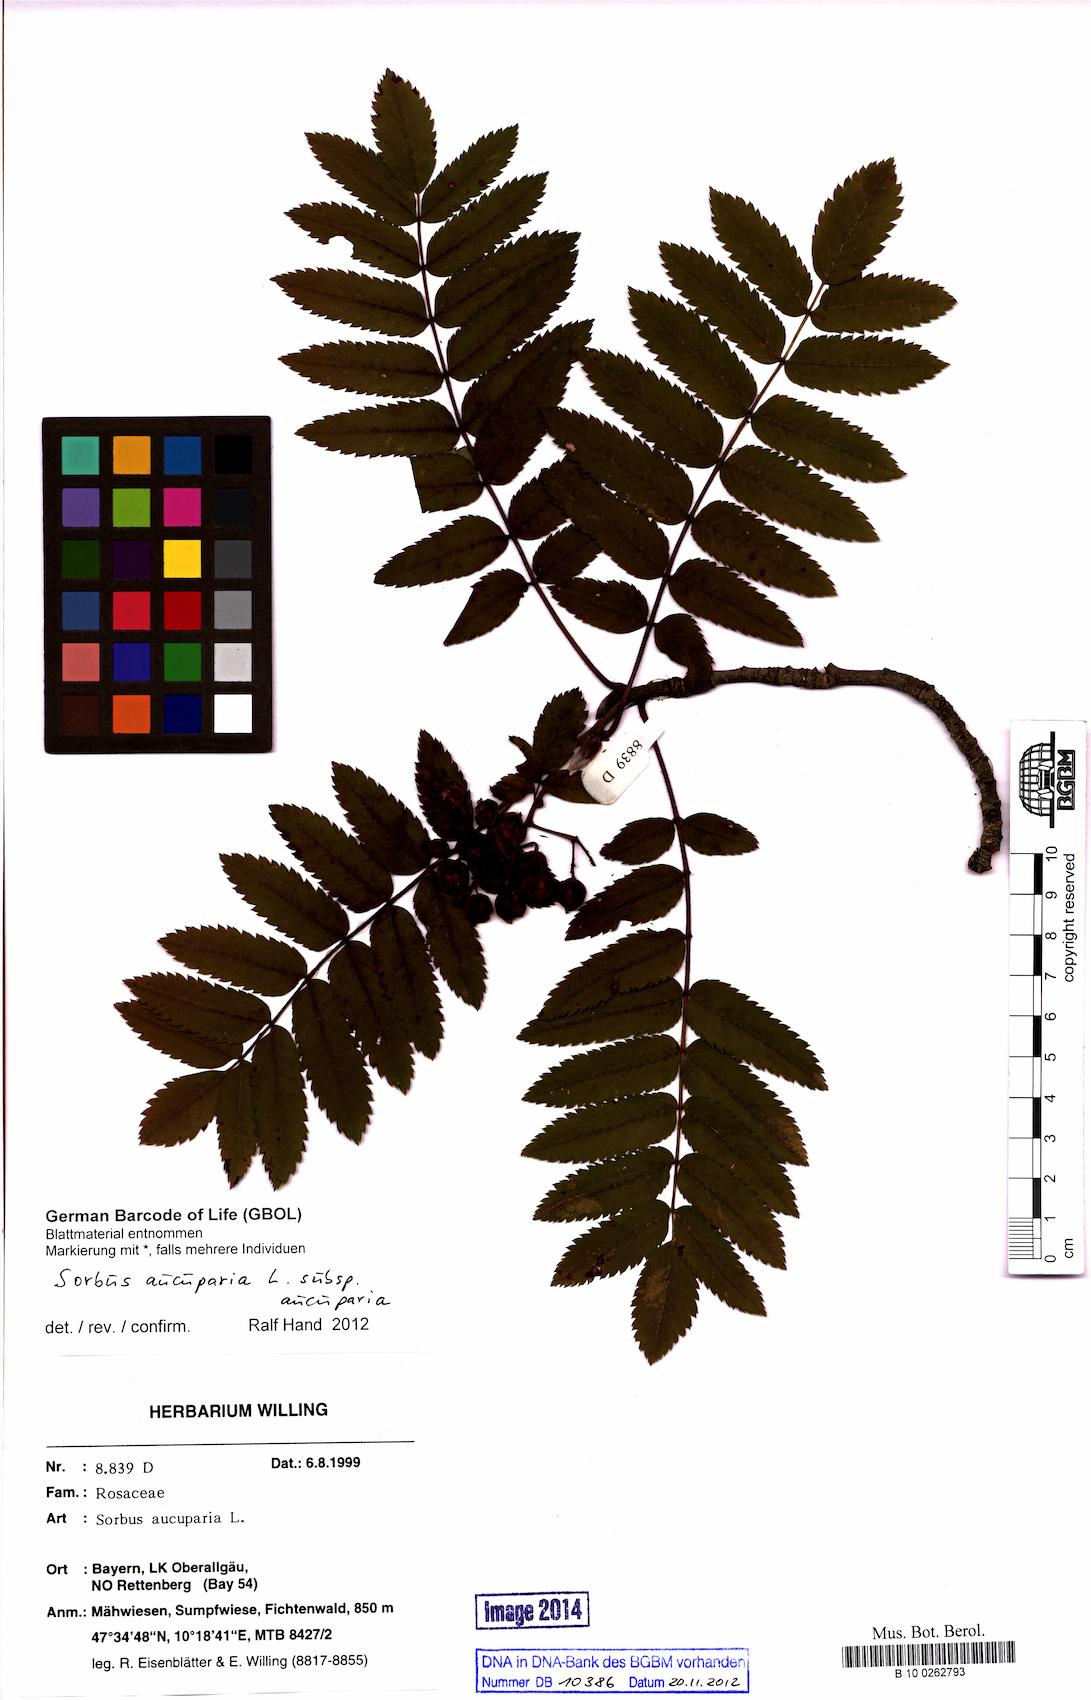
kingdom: Plantae
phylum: Tracheophyta
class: Magnoliopsida
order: Rosales
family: Rosaceae
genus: Sorbus
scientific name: Sorbus aucuparia
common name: Rowan
